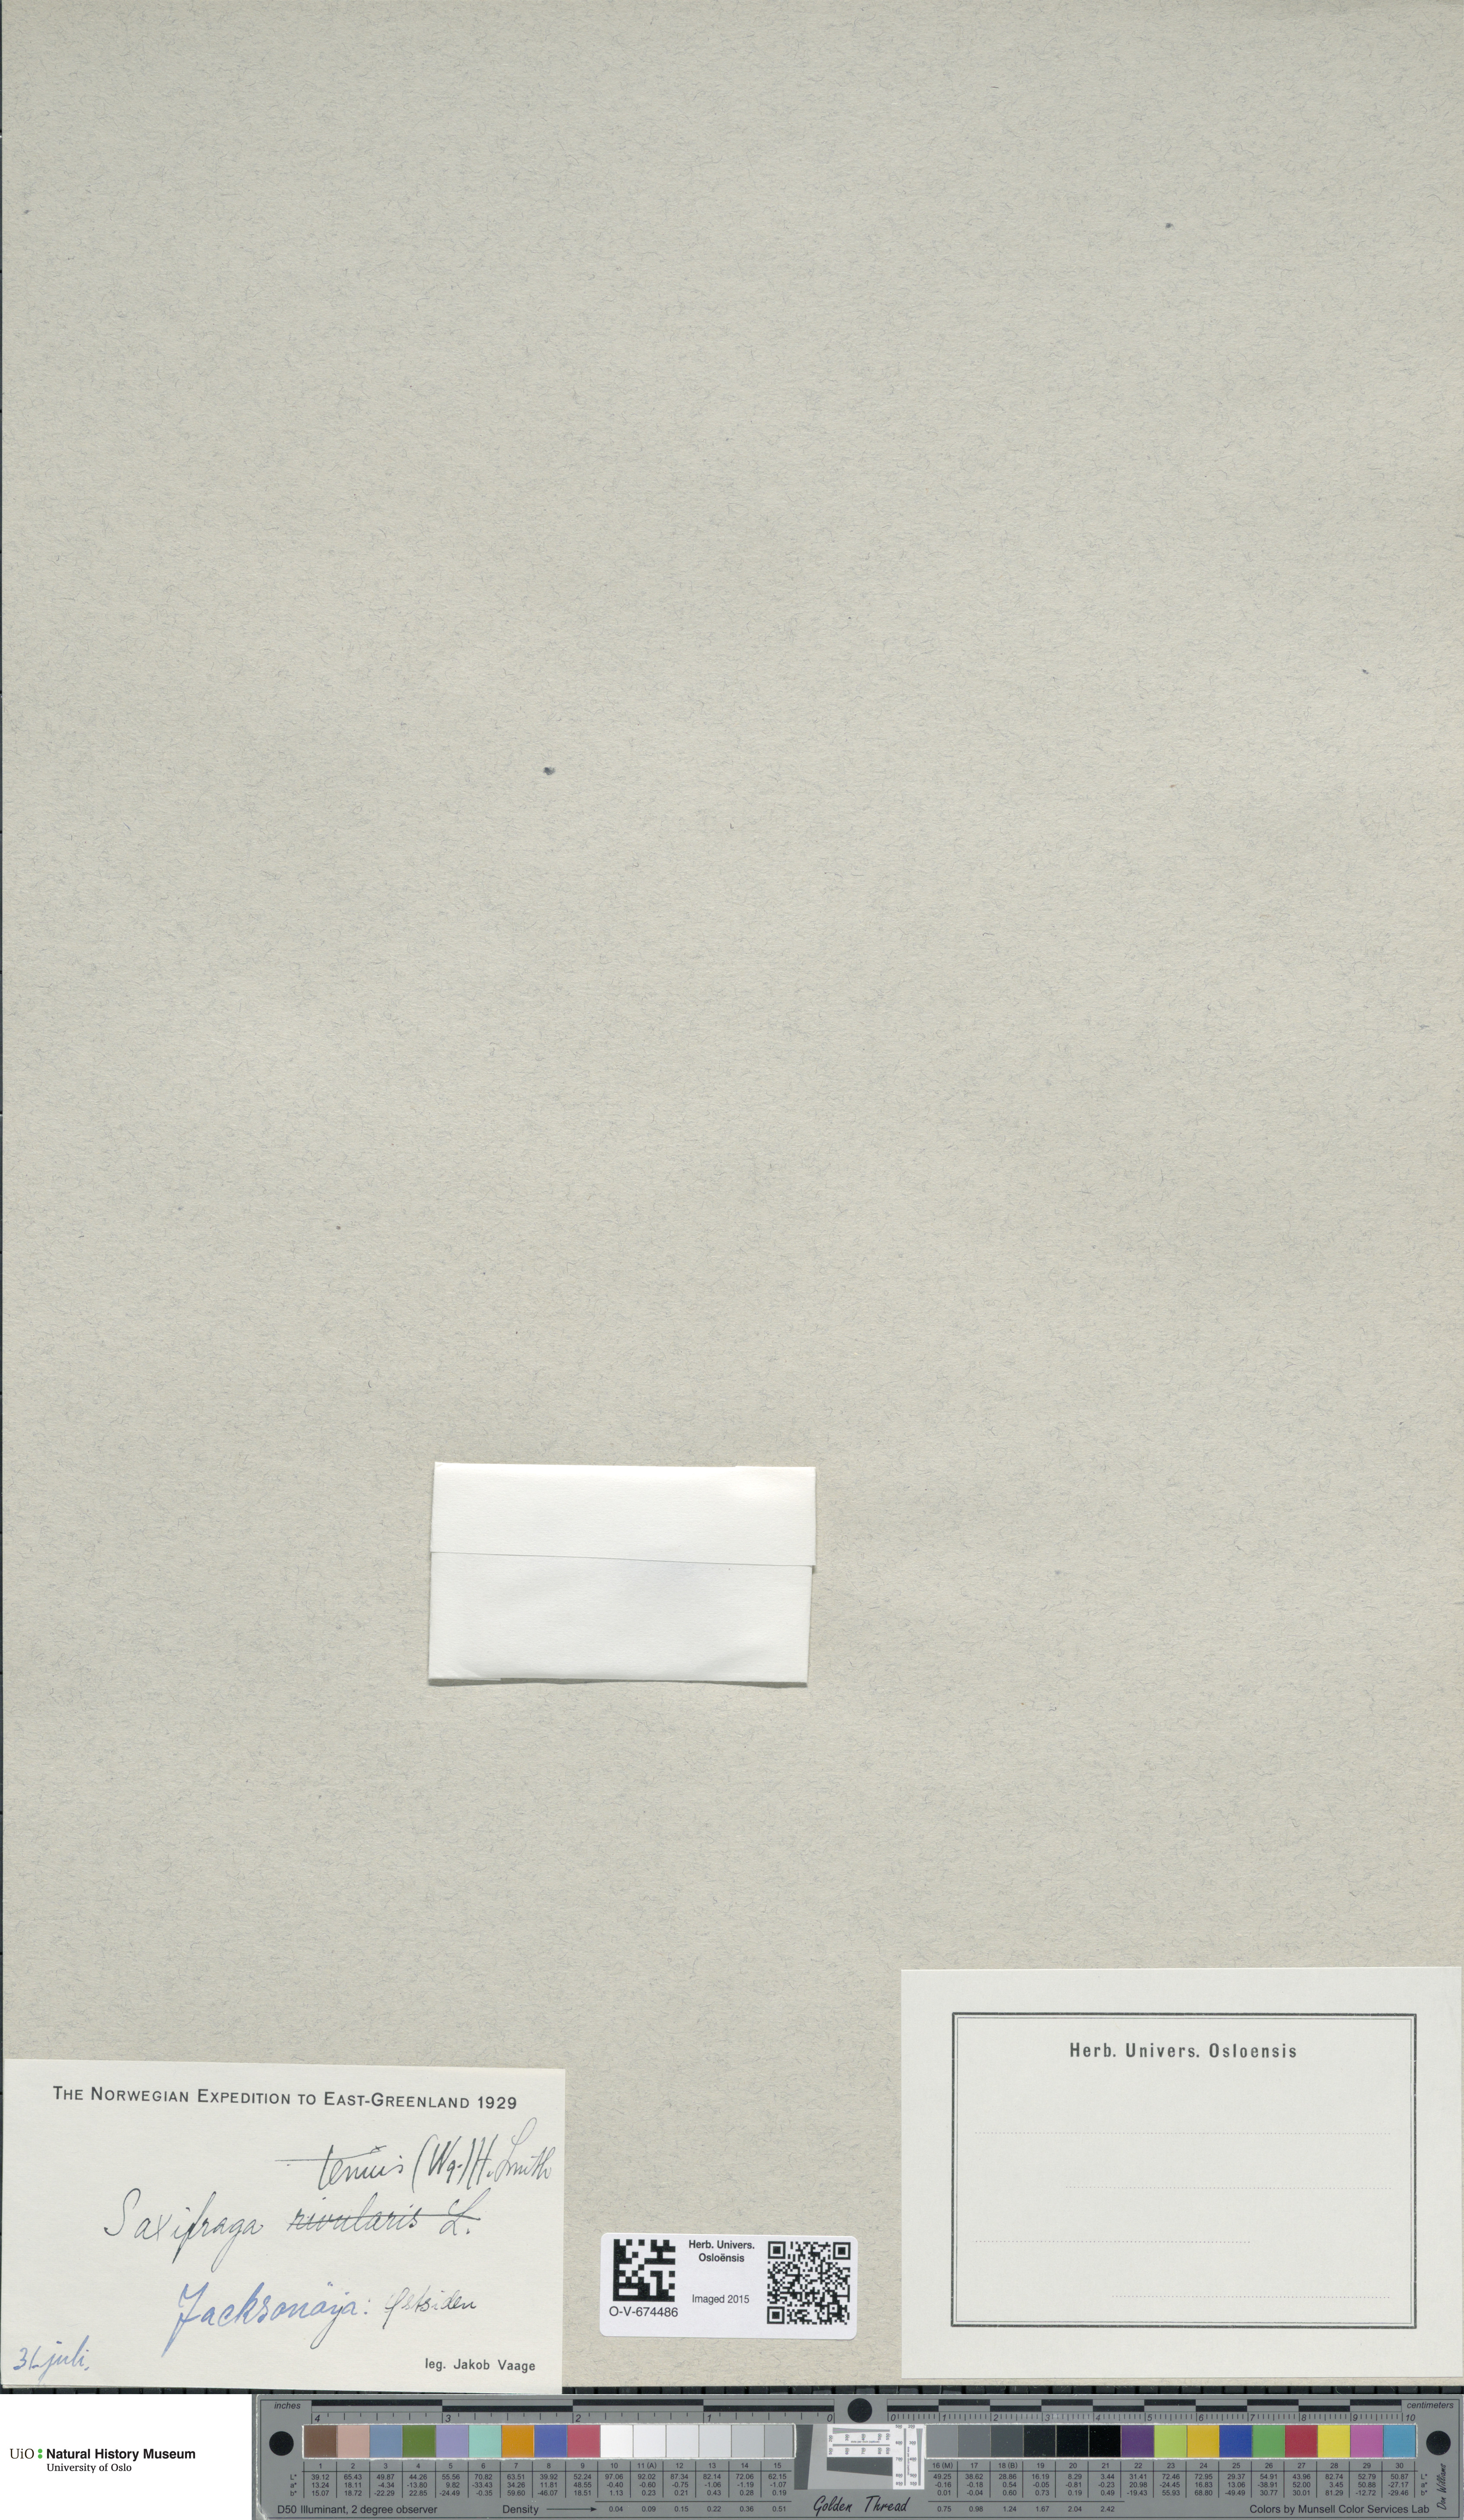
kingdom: Plantae
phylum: Tracheophyta
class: Magnoliopsida
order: Saxifragales
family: Saxifragaceae
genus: Micranthes
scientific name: Micranthes tenuis
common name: Ottertail pass saxifrage
